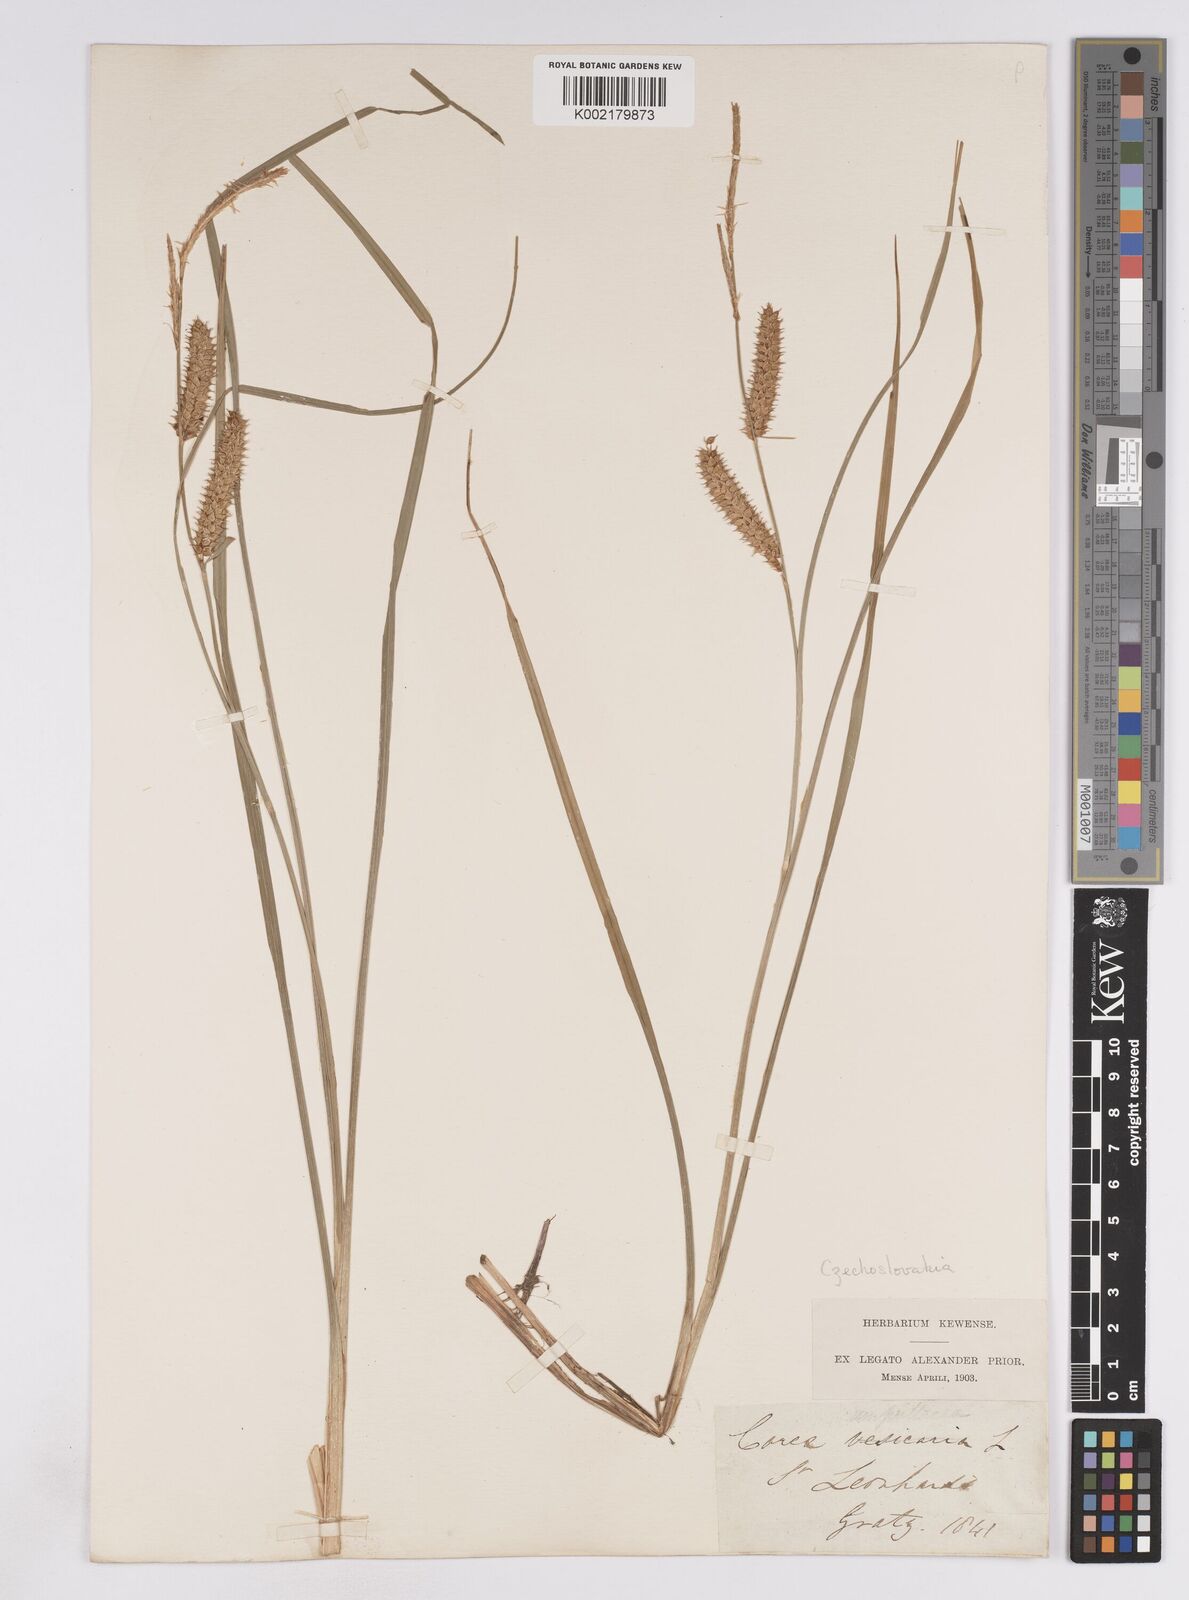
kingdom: Plantae
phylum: Tracheophyta
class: Liliopsida
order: Poales
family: Cyperaceae
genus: Carex
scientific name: Carex rostrata
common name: Bottle sedge
